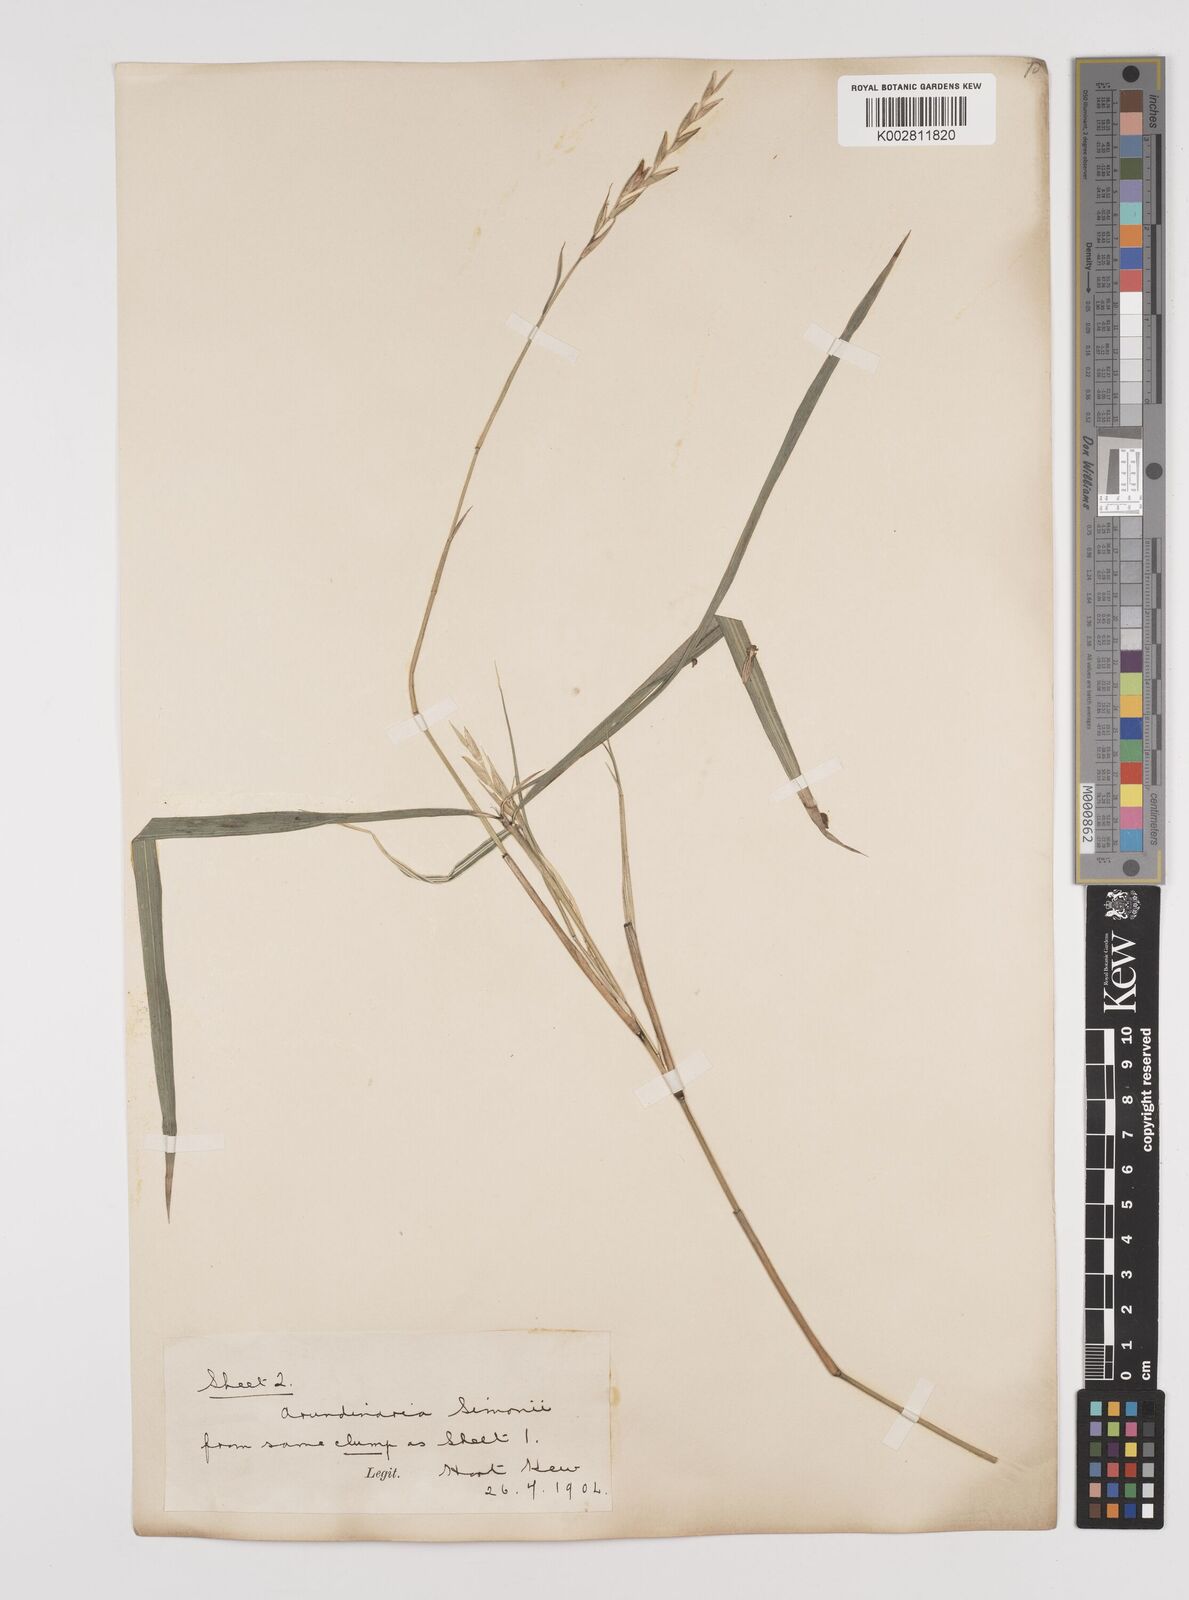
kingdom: Plantae
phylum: Tracheophyta
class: Liliopsida
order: Poales
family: Poaceae
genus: Pleioblastus
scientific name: Pleioblastus simonii
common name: Simon bamboo
